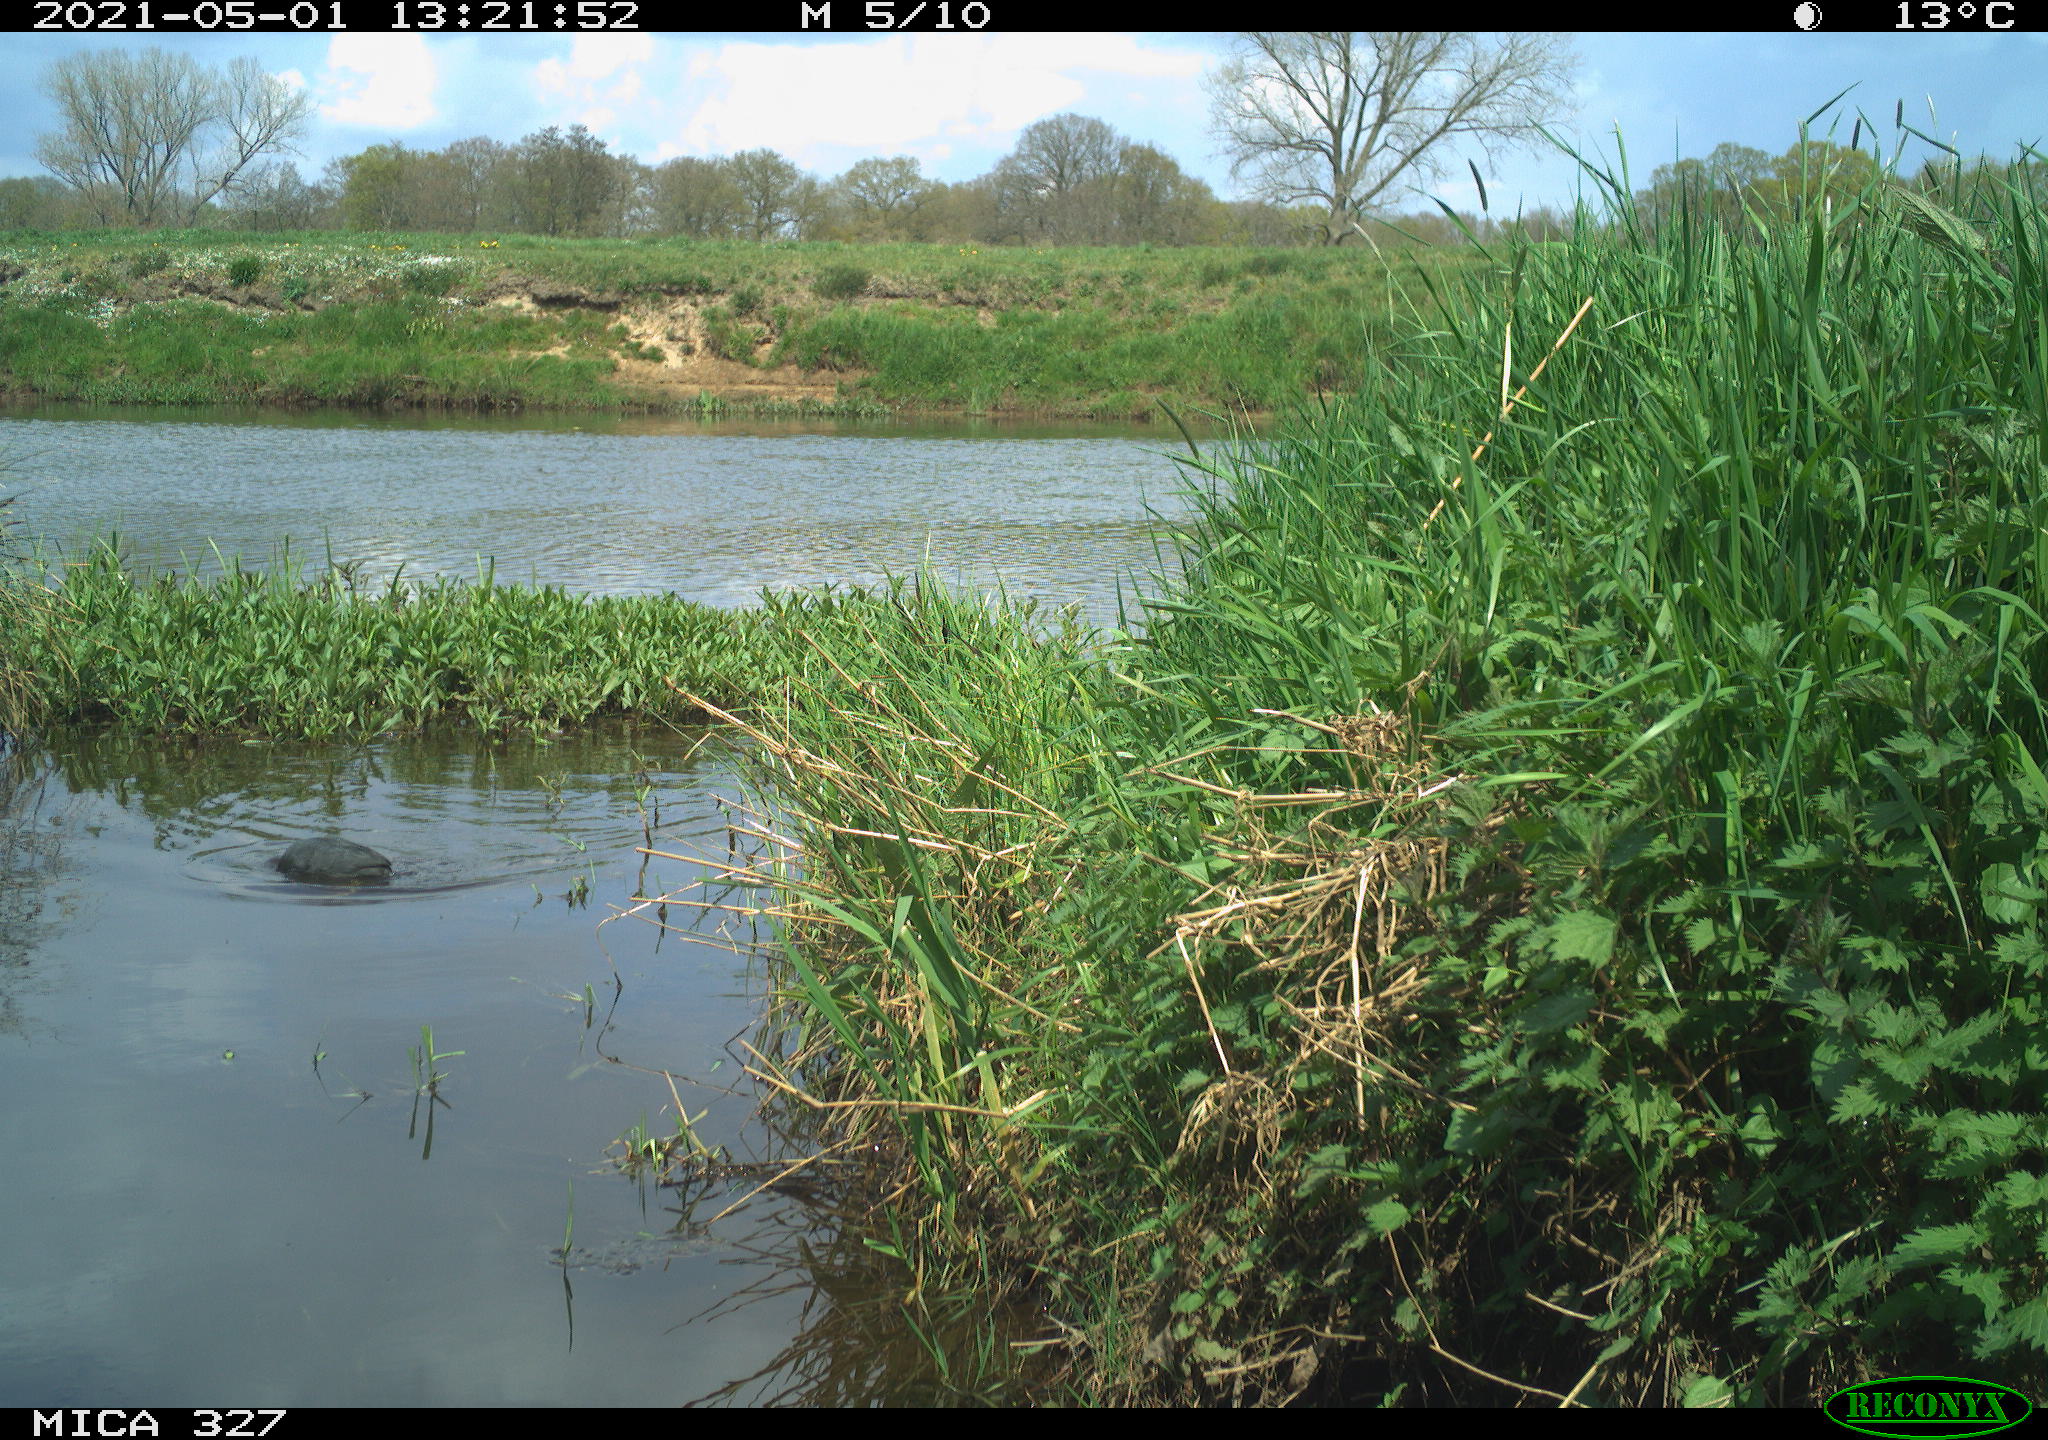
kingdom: Animalia
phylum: Chordata
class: Aves
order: Gruiformes
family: Rallidae
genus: Fulica
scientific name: Fulica atra
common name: Eurasian coot
